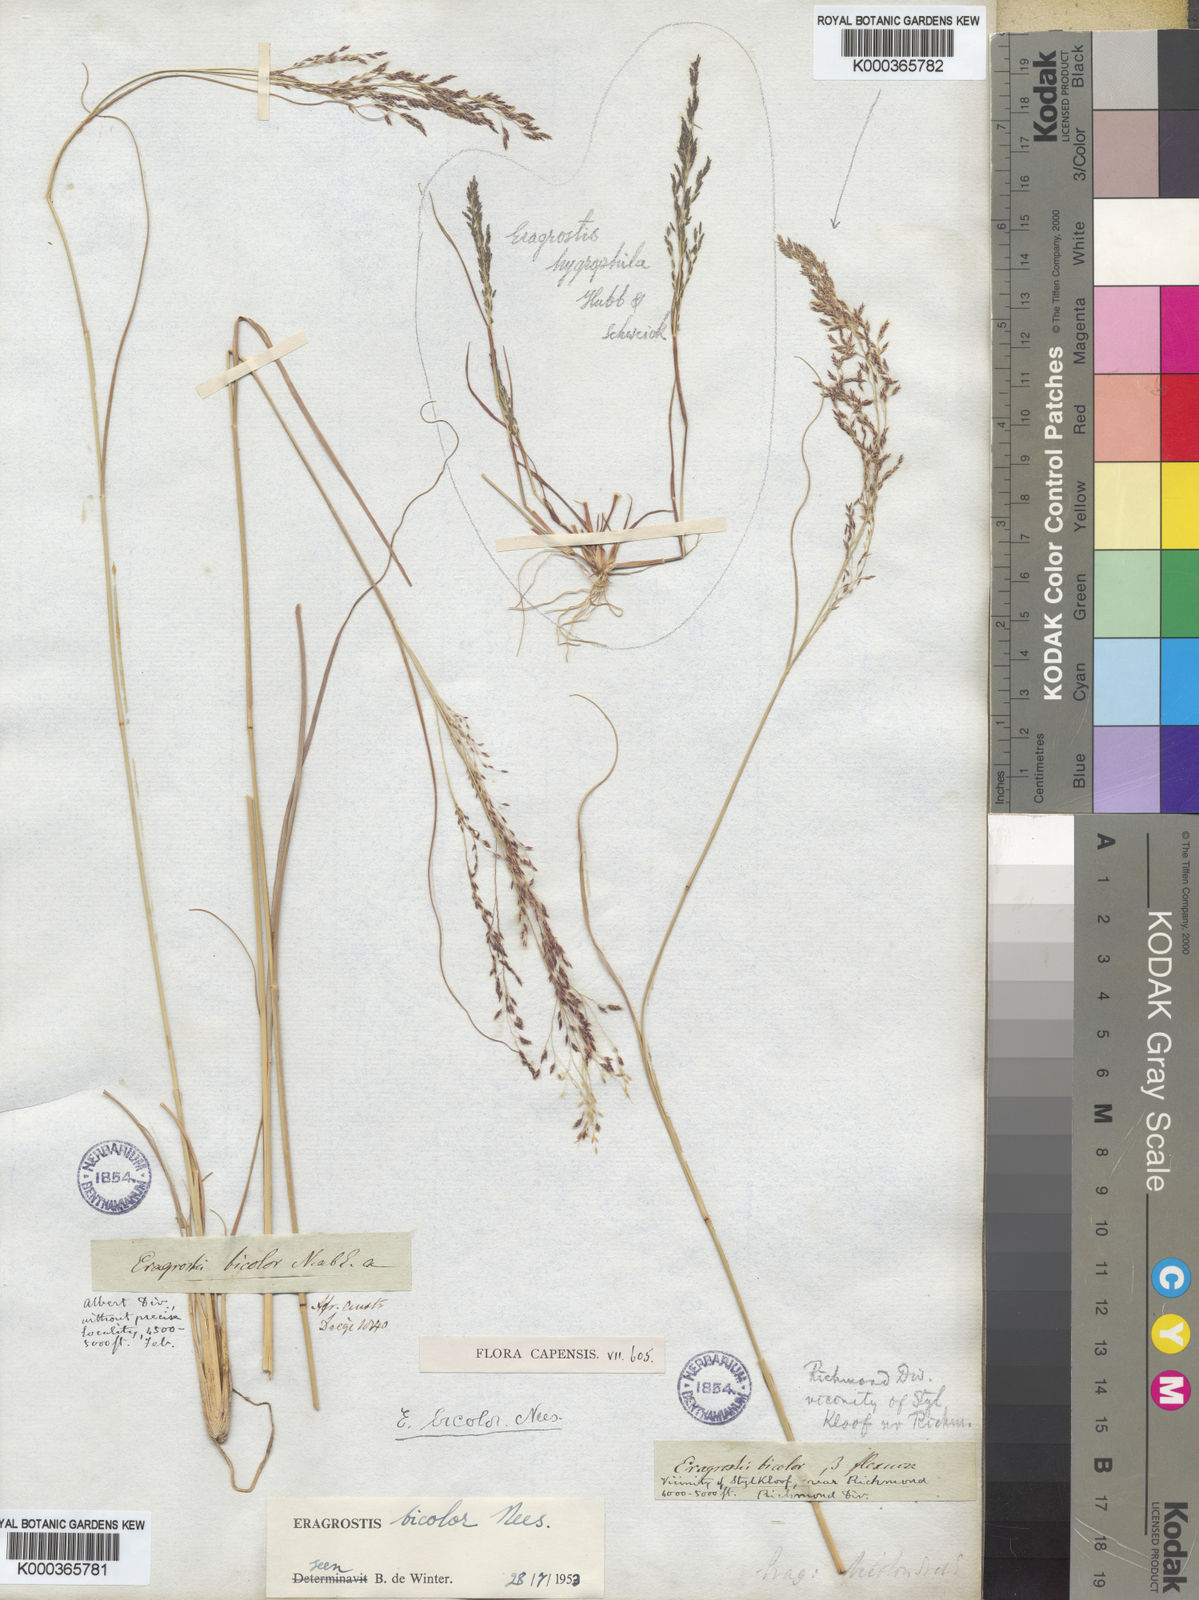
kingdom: Plantae
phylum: Tracheophyta
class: Liliopsida
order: Poales
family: Poaceae
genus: Eragrostis
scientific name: Eragrostis bicolor
